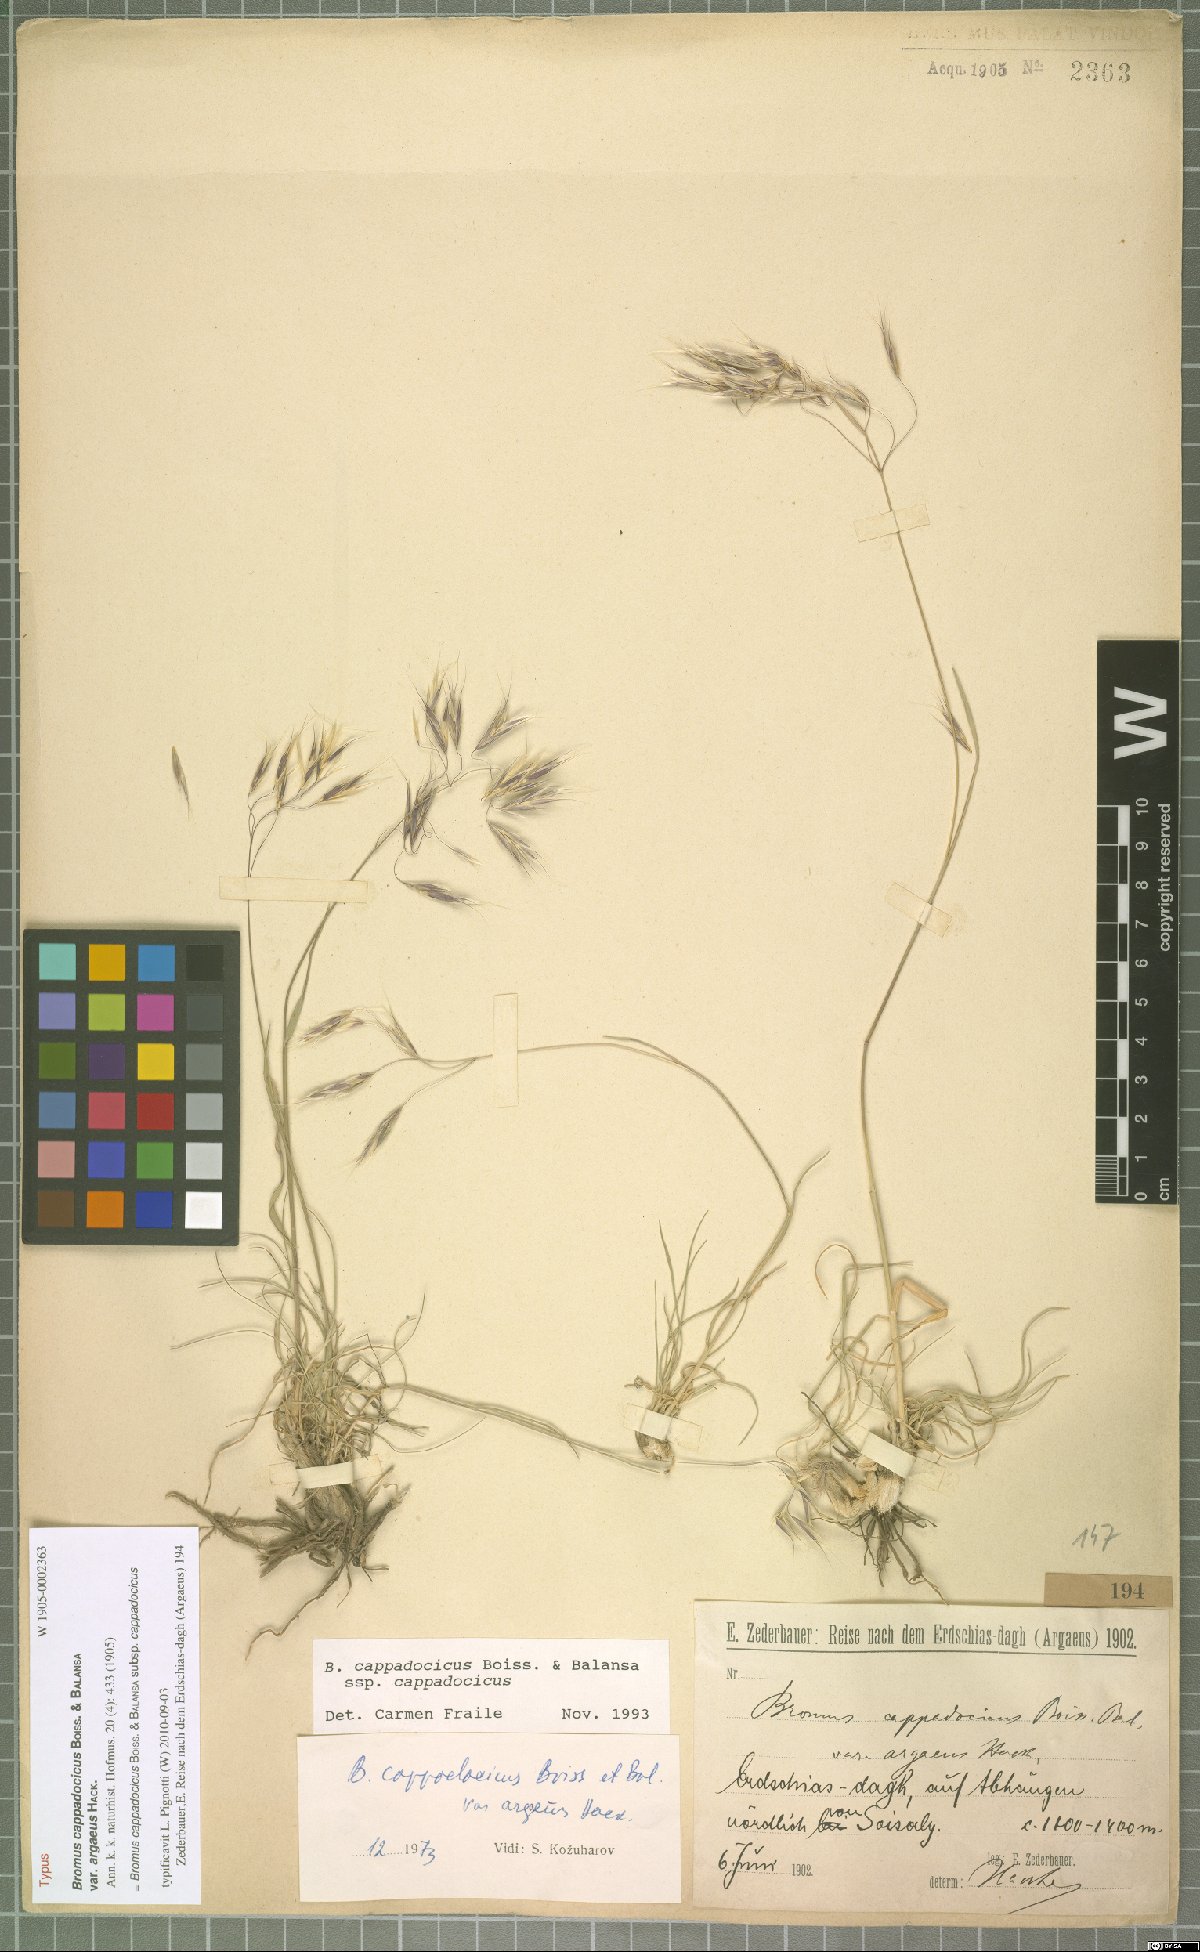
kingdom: Plantae
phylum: Tracheophyta
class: Liliopsida
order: Poales
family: Poaceae
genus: Bromus
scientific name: Bromus sclerophyllus
